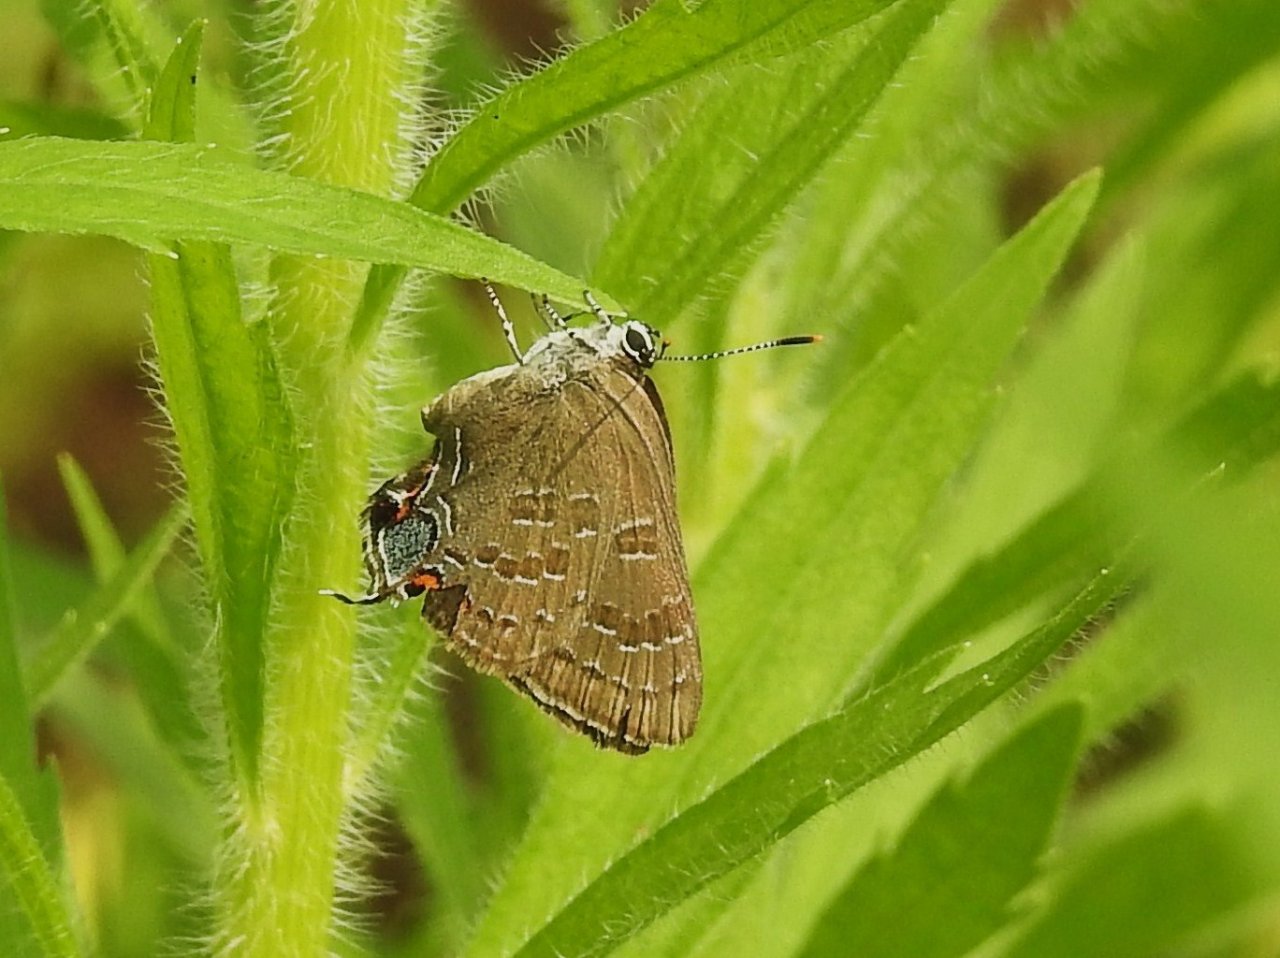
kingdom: Animalia
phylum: Arthropoda
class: Insecta
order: Lepidoptera
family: Lycaenidae
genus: Strymon
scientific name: Strymon caryaevorus
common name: Hickory Hairstreak
